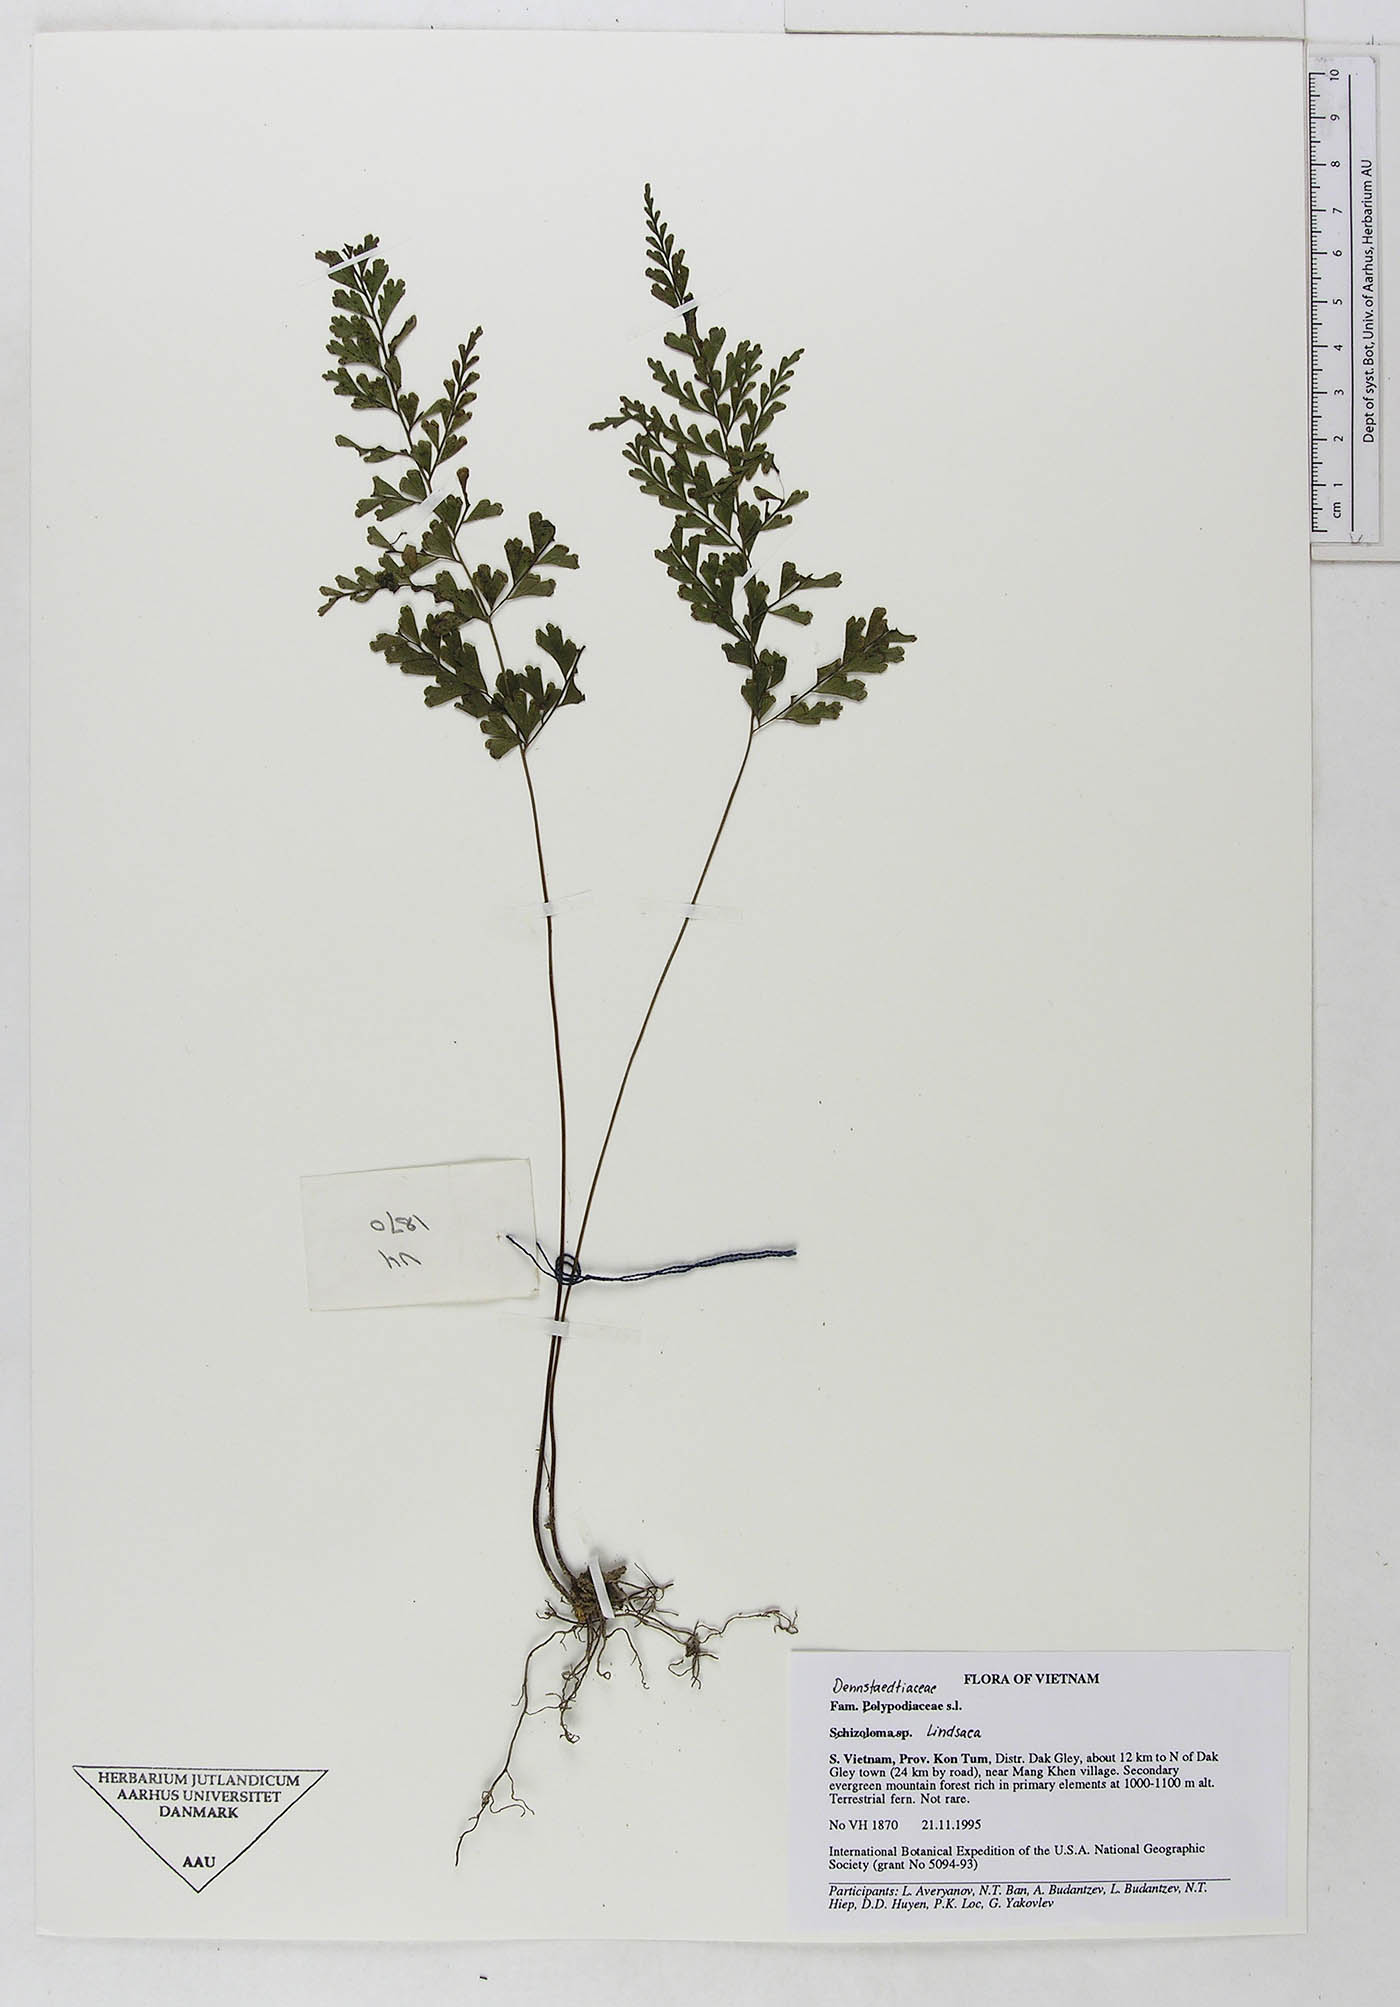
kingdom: Plantae
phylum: Tracheophyta
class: Polypodiopsida
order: Polypodiales
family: Dennstaedtiaceae
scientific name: Dennstaedtiaceae
